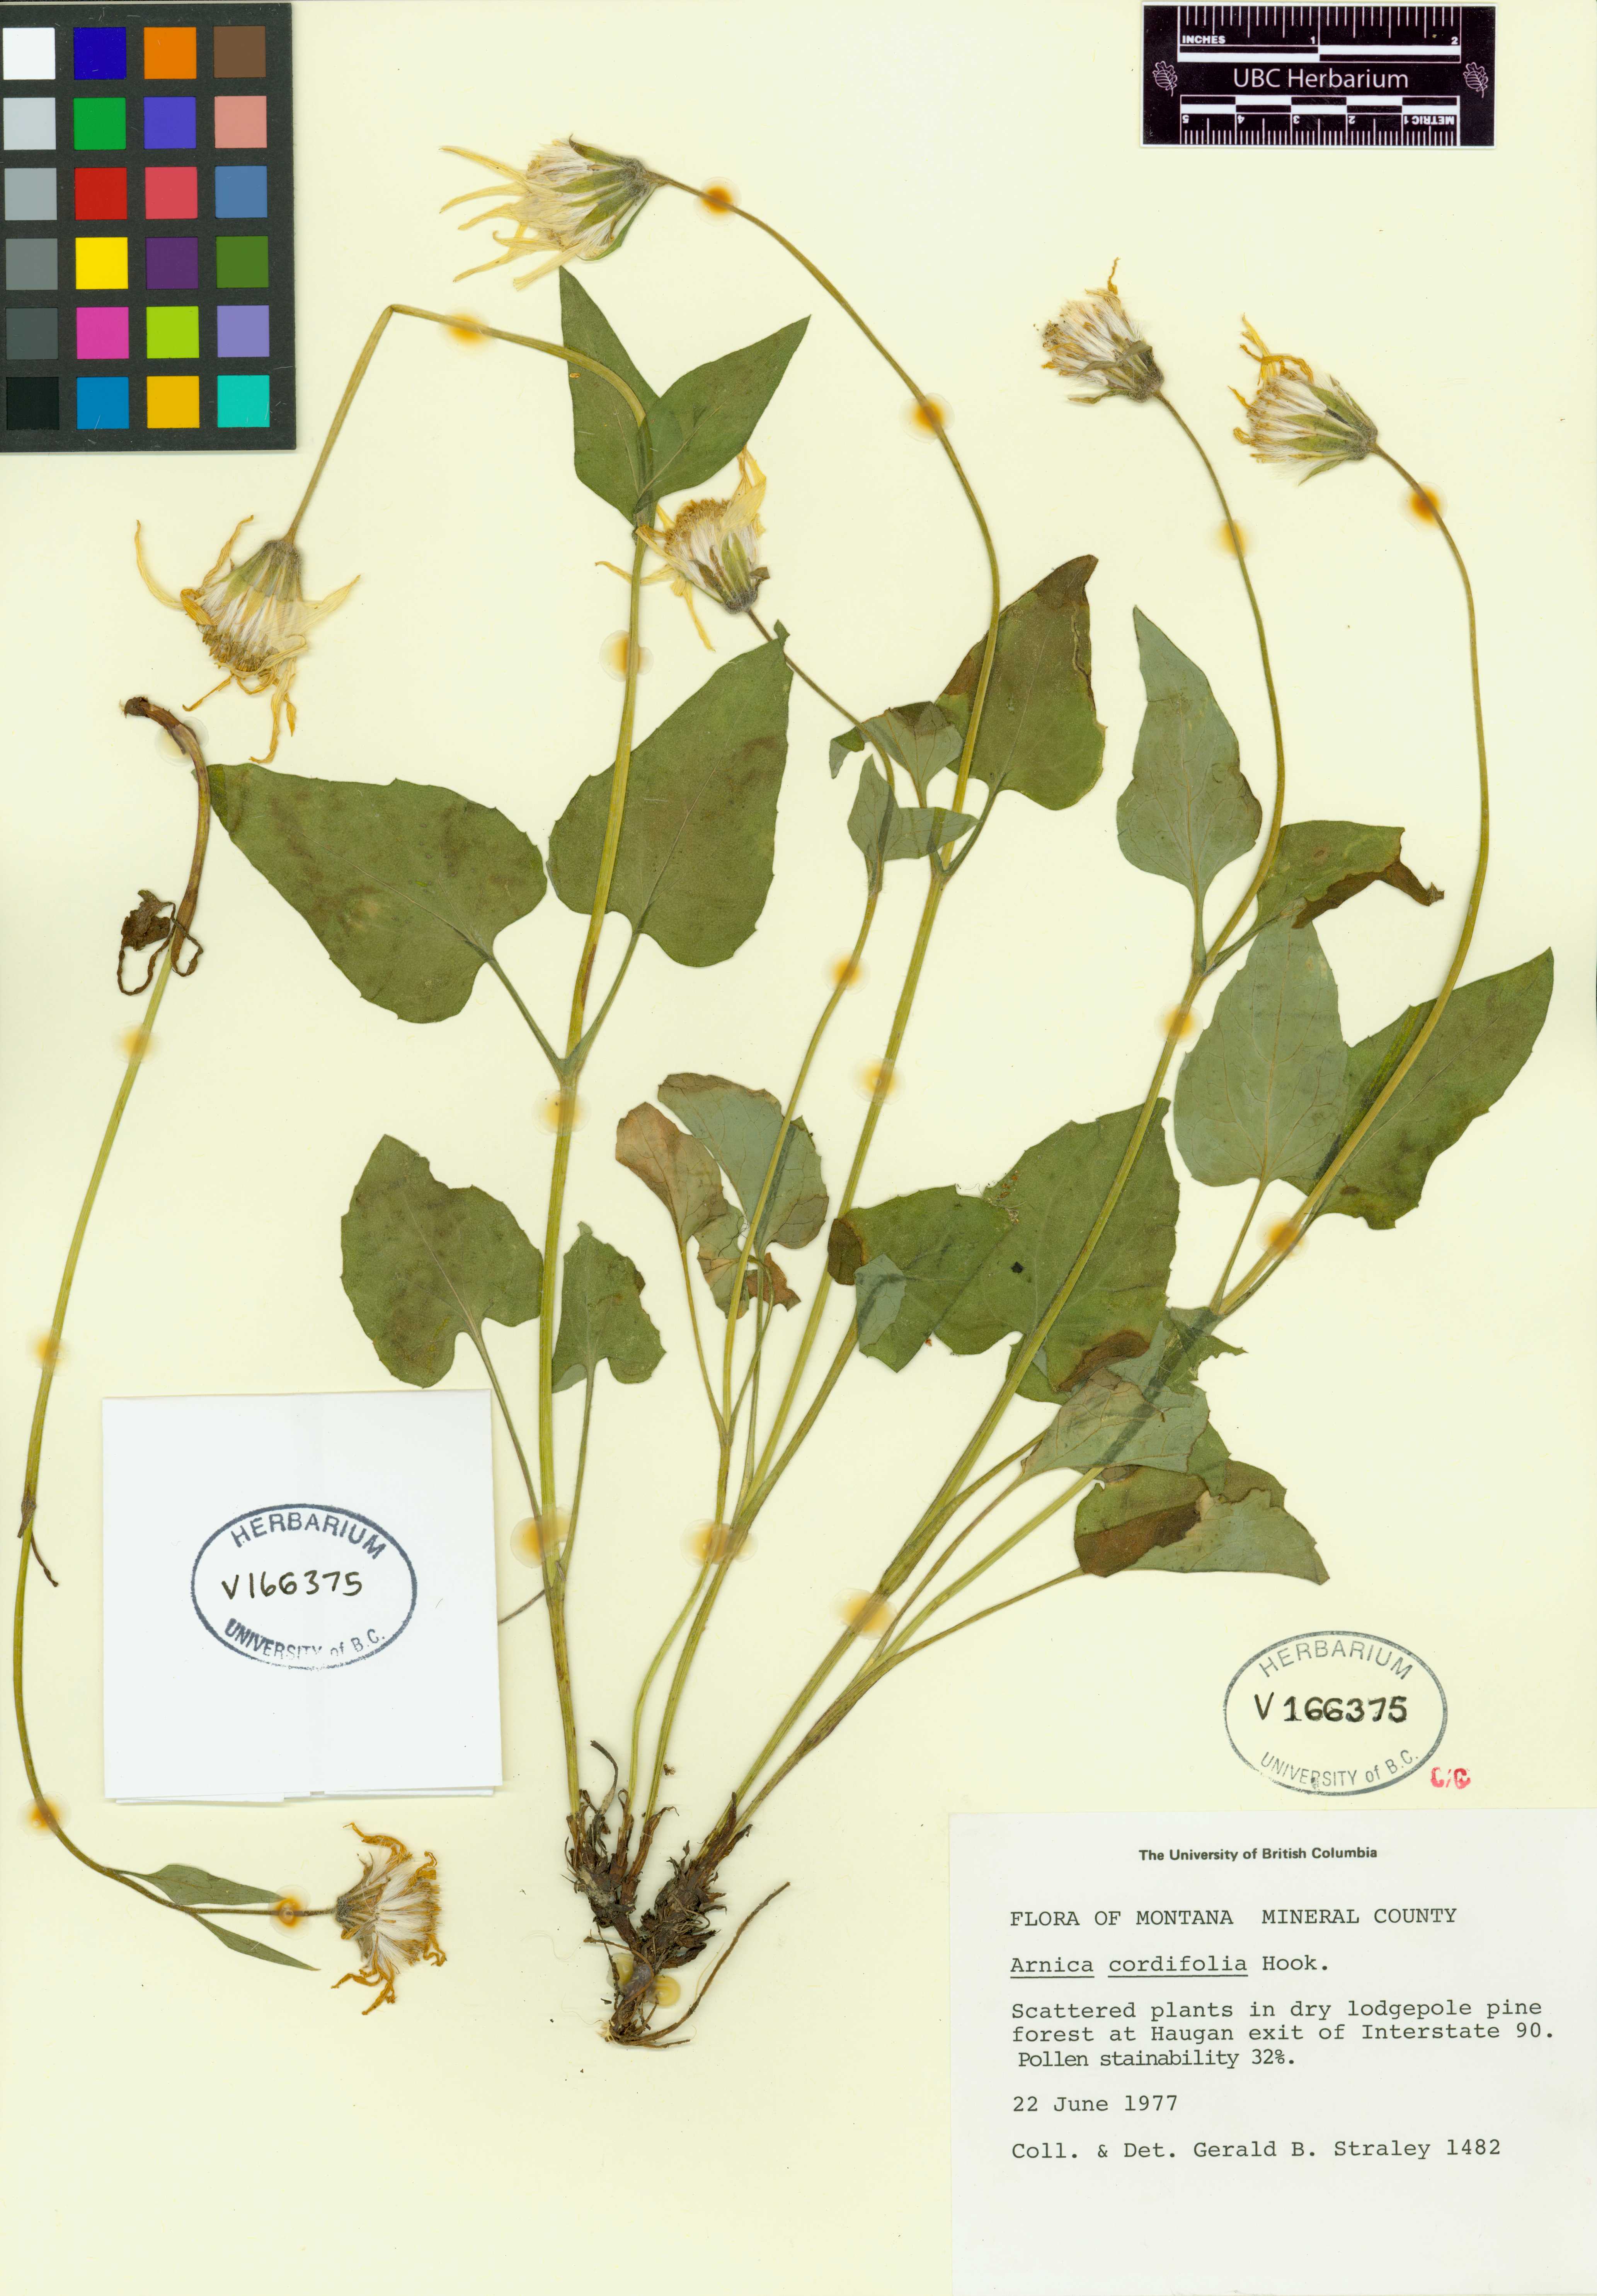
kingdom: Plantae
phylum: Tracheophyta
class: Magnoliopsida
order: Asterales
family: Asteraceae
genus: Arnica
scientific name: Arnica cordifolia
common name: Heart-leaf arnica
